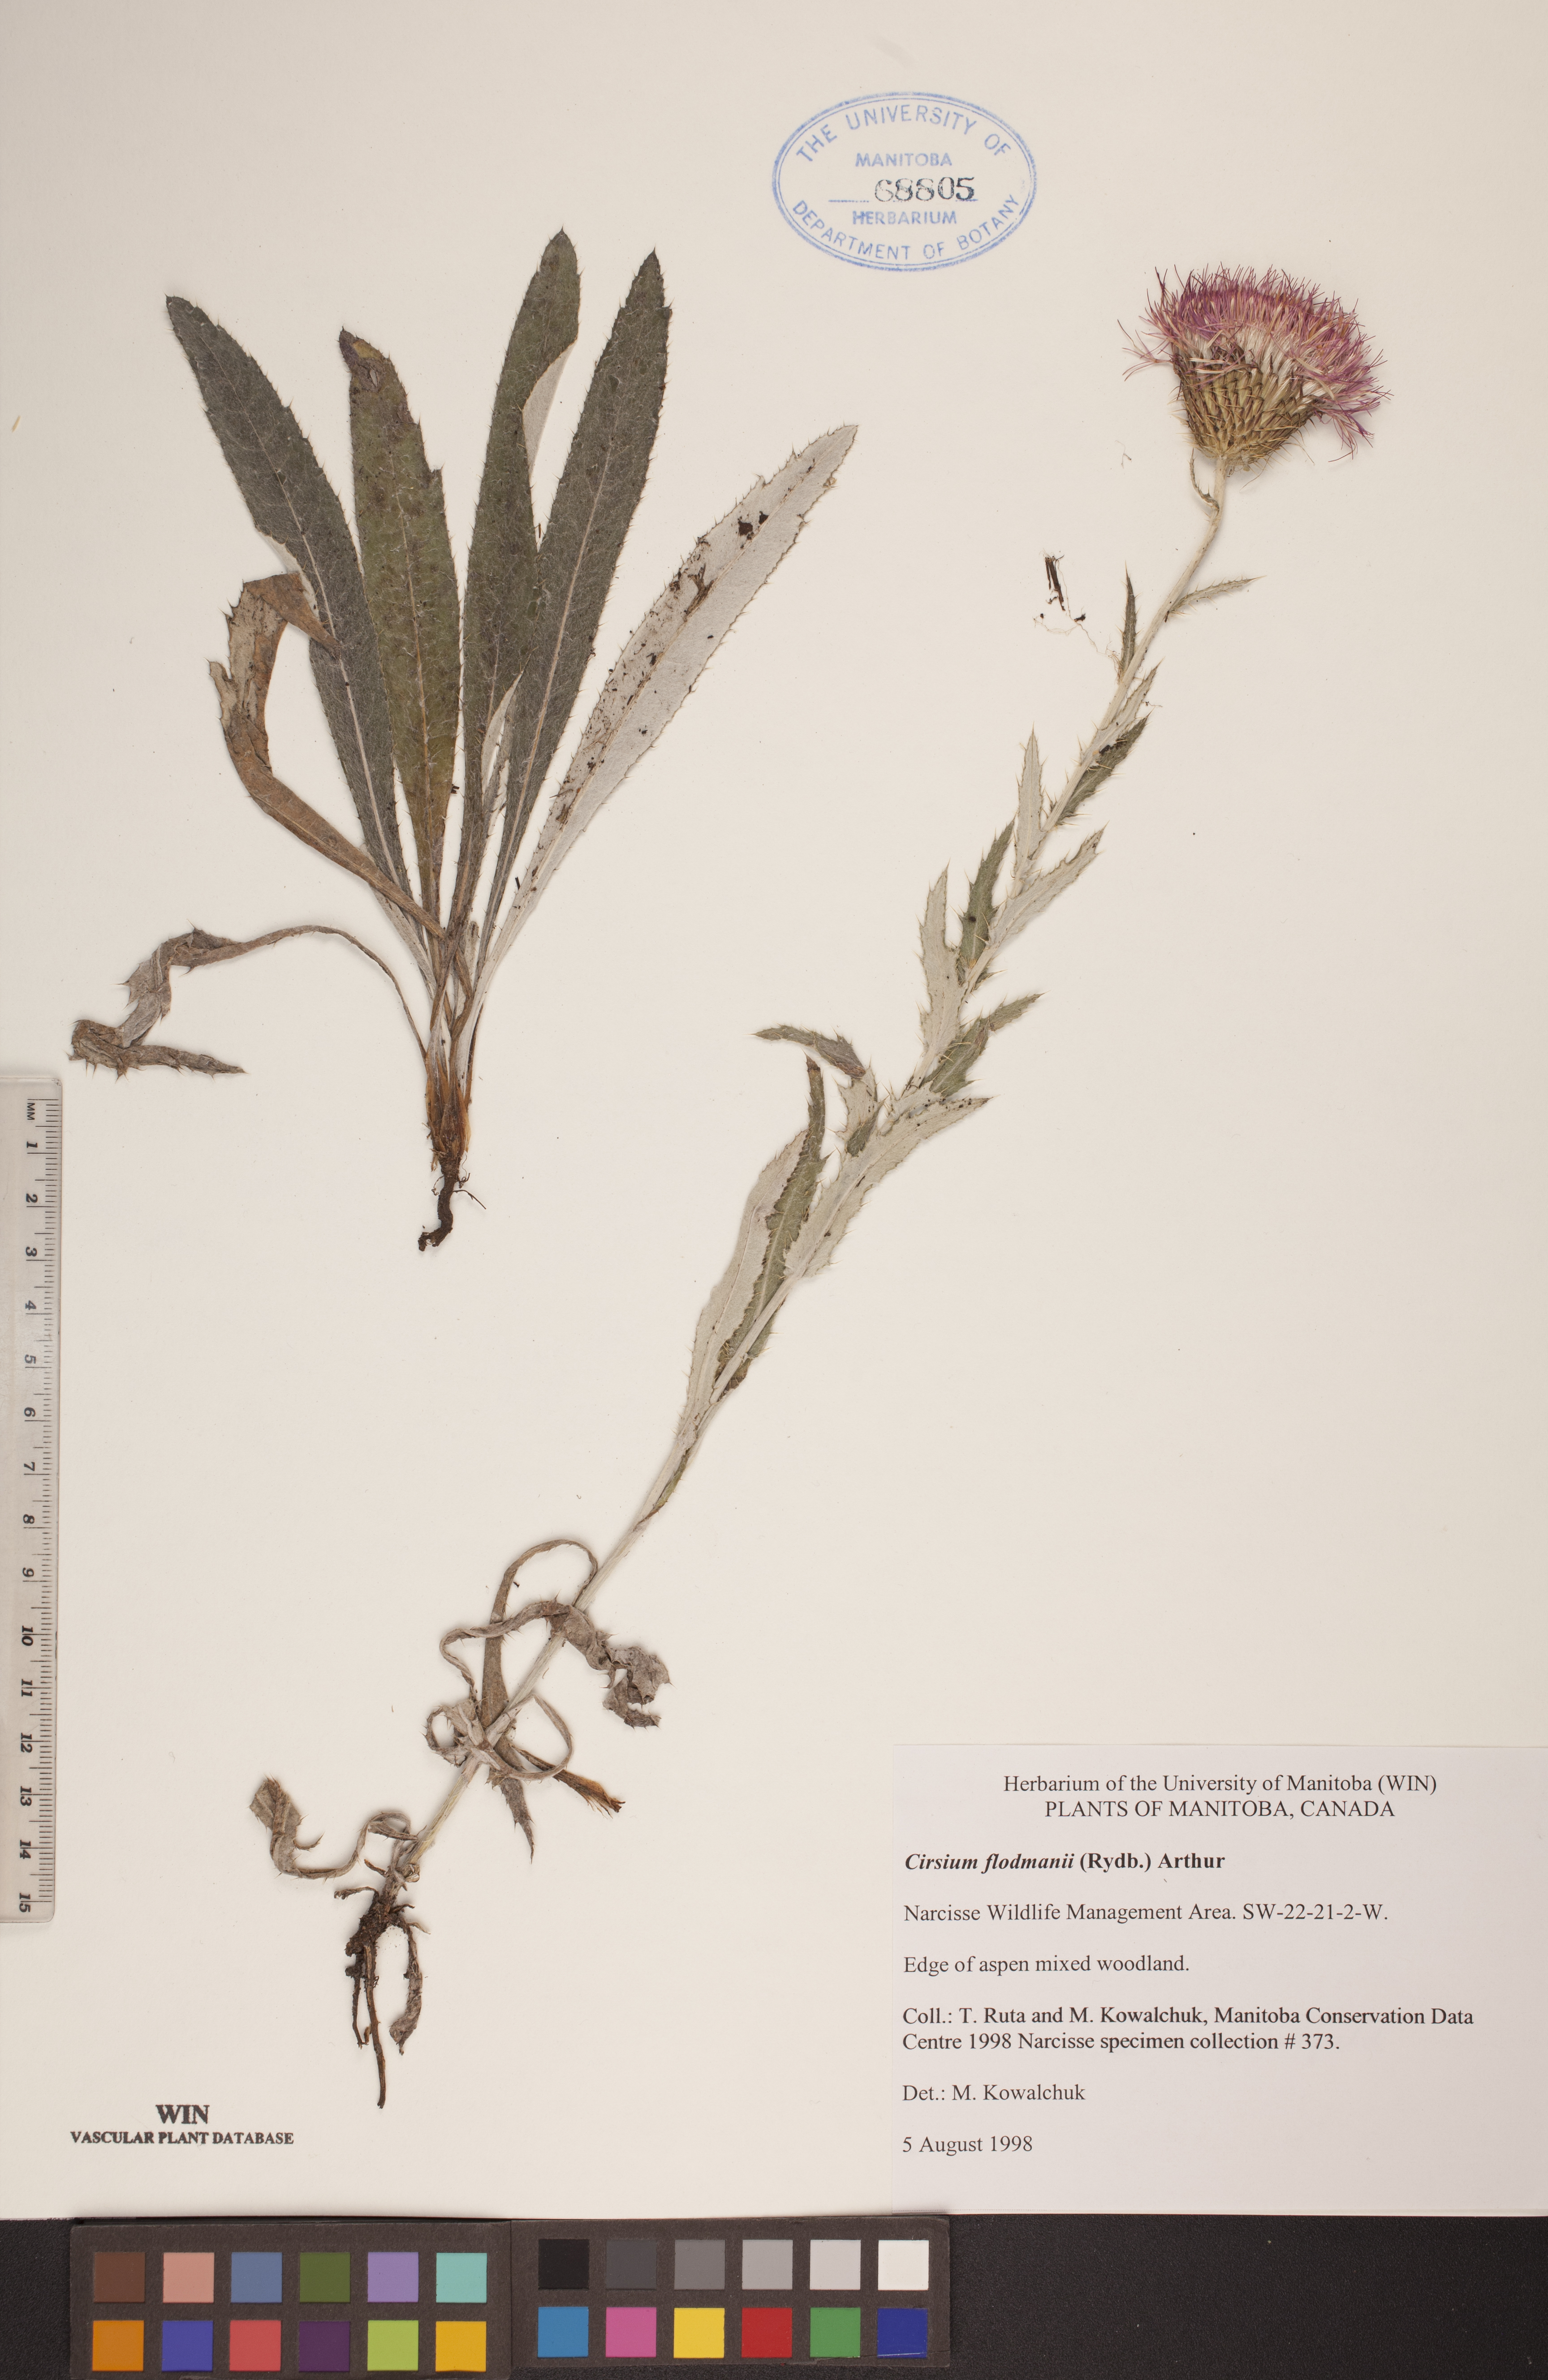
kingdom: Plantae
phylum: Tracheophyta
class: Magnoliopsida
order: Asterales
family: Asteraceae
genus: Cirsium
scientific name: Cirsium flodmanii
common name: Flodman's thistle
